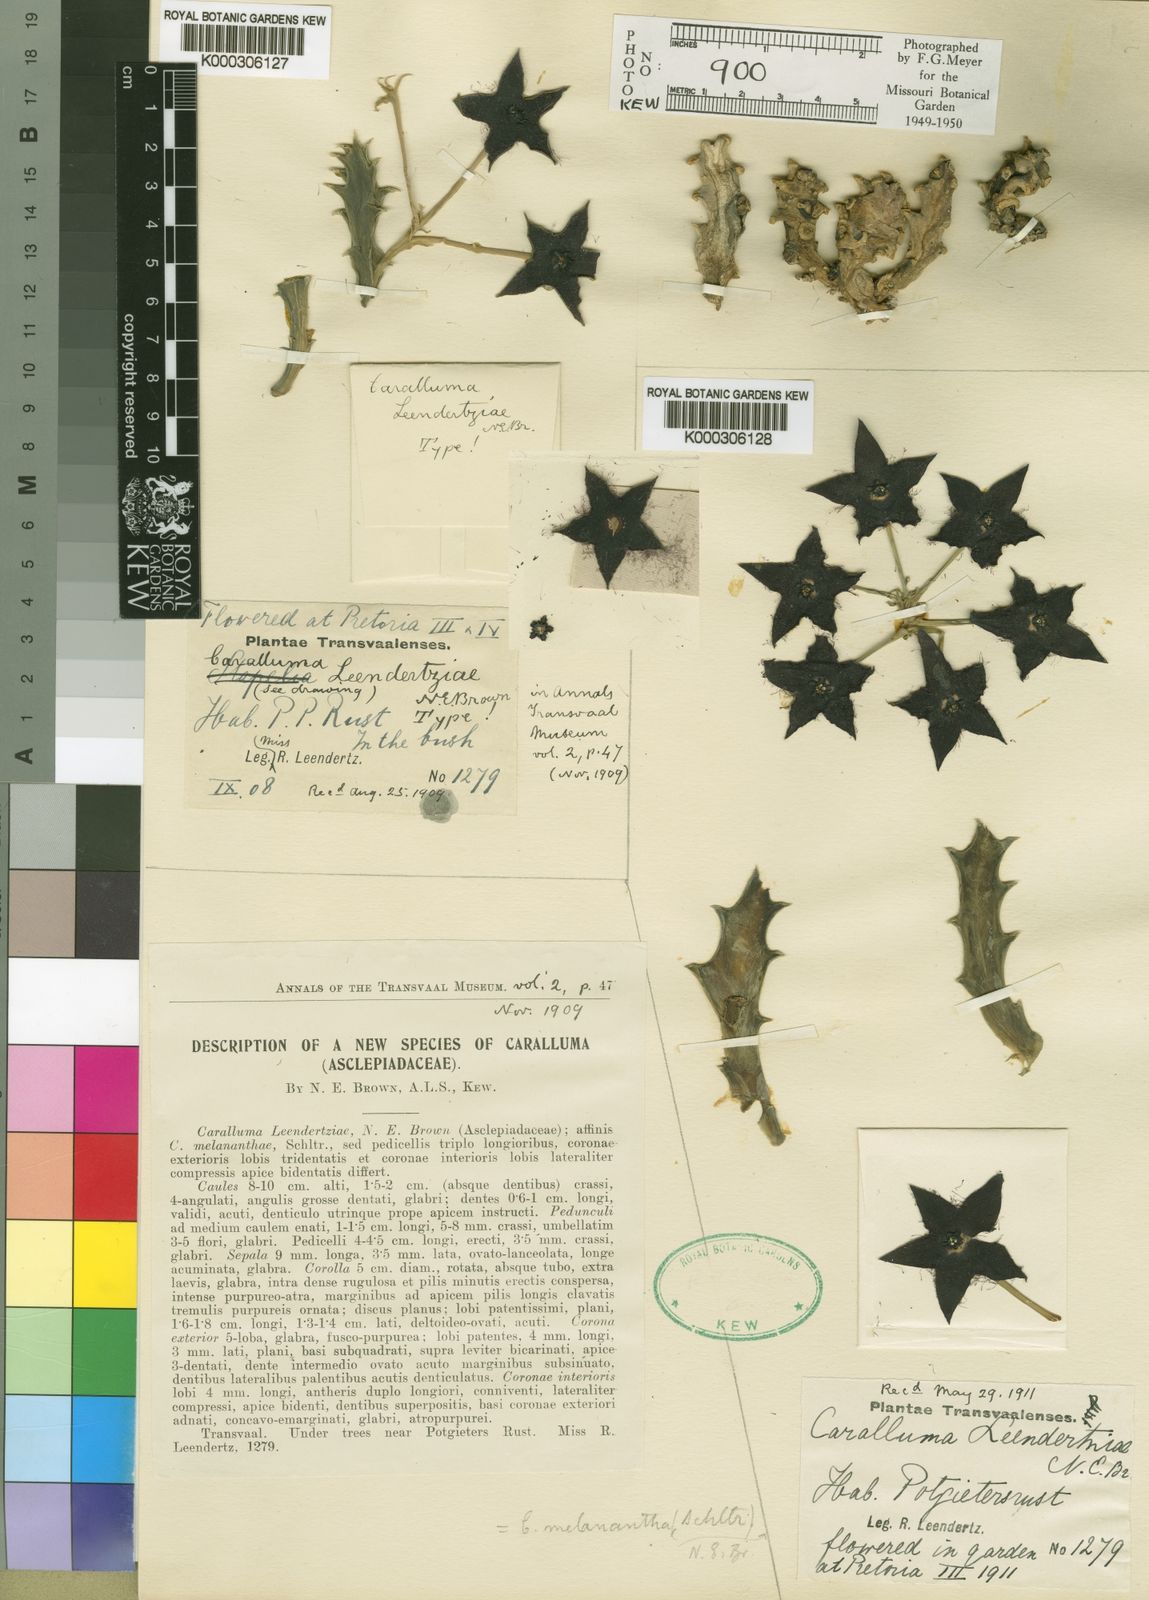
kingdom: Plantae
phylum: Tracheophyta
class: Magnoliopsida
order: Gentianales
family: Apocynaceae
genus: Ceropegia
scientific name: Ceropegia melanantha
